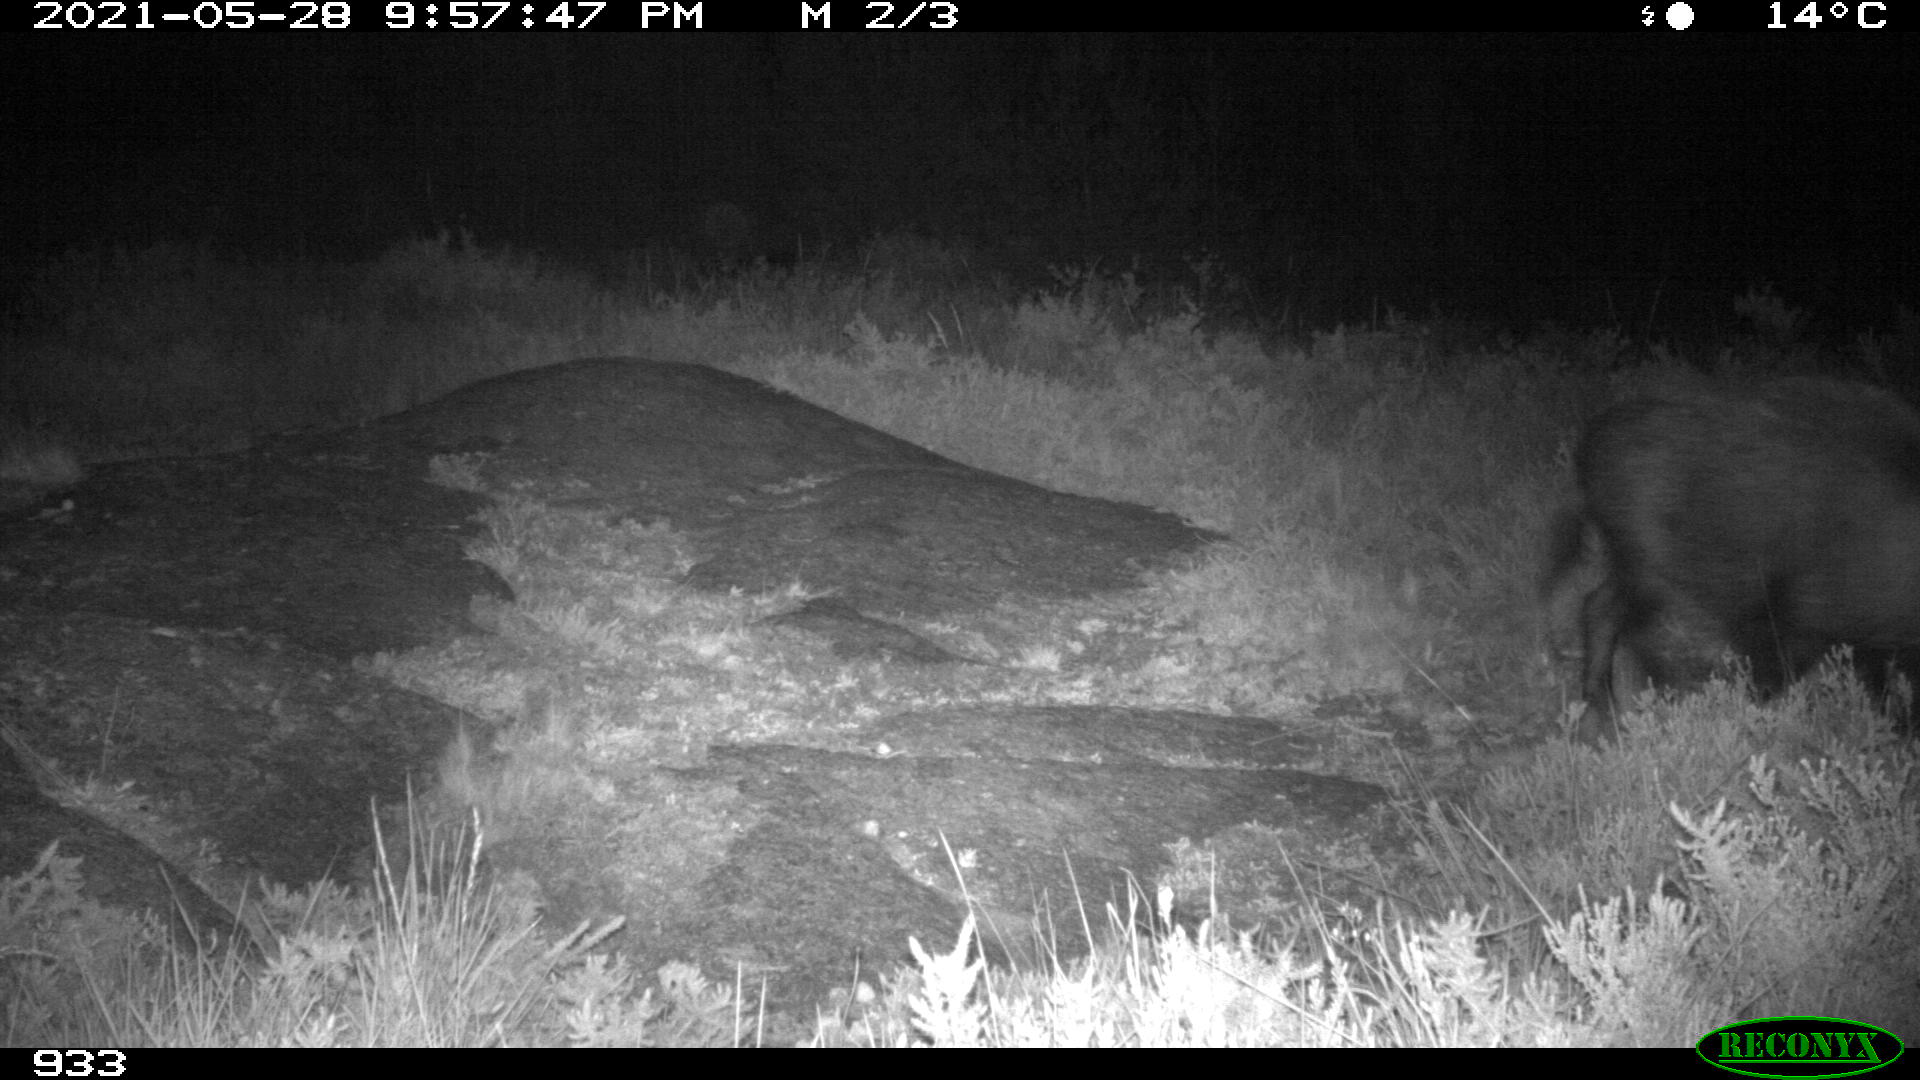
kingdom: Animalia
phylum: Chordata
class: Mammalia
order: Artiodactyla
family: Suidae
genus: Sus
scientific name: Sus scrofa
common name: Wild boar
